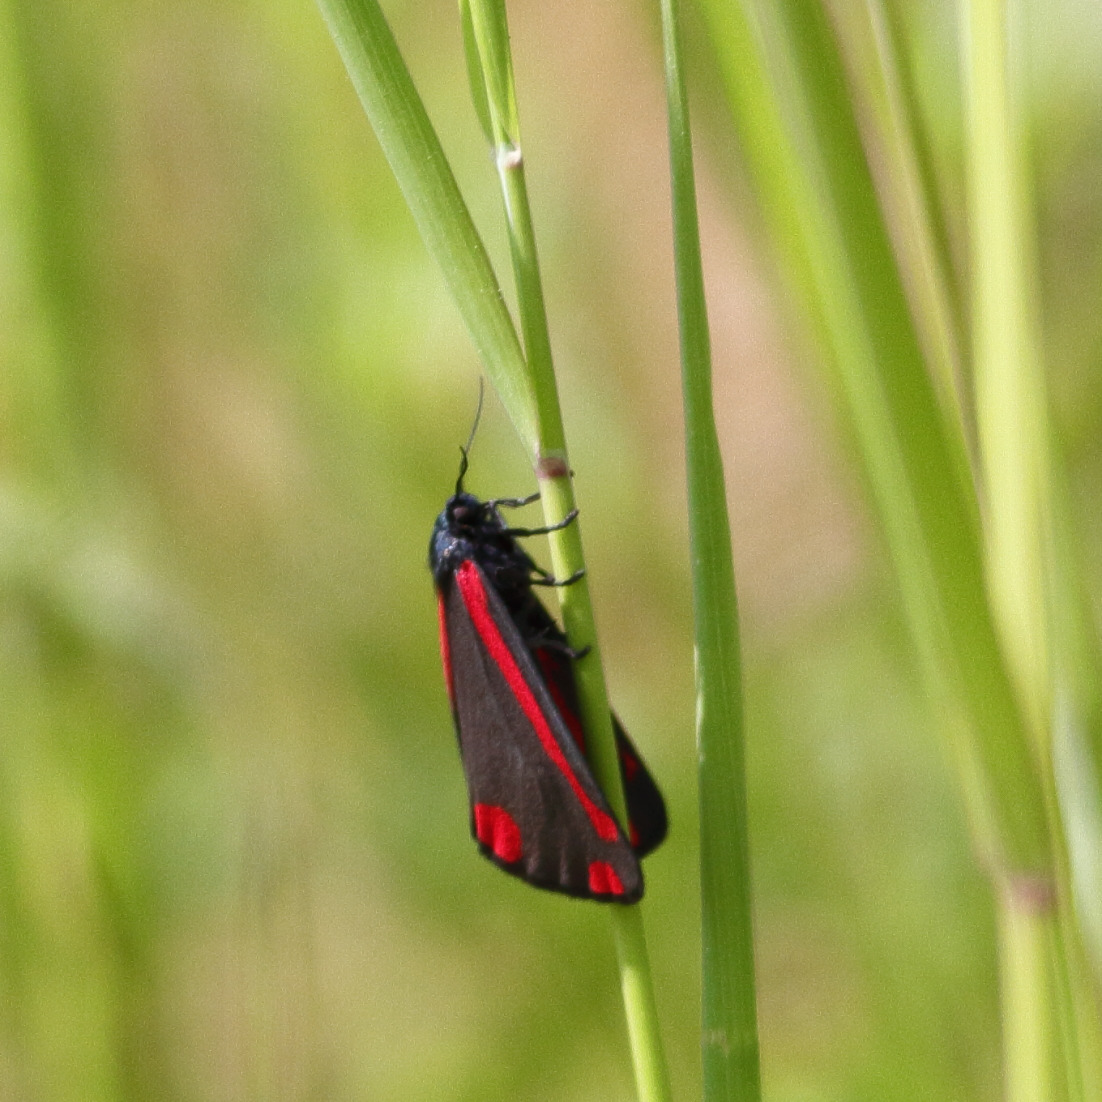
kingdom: Animalia
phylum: Arthropoda
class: Insecta
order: Lepidoptera
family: Erebidae
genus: Tyria
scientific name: Tyria jacobaeae
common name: Blodplet
